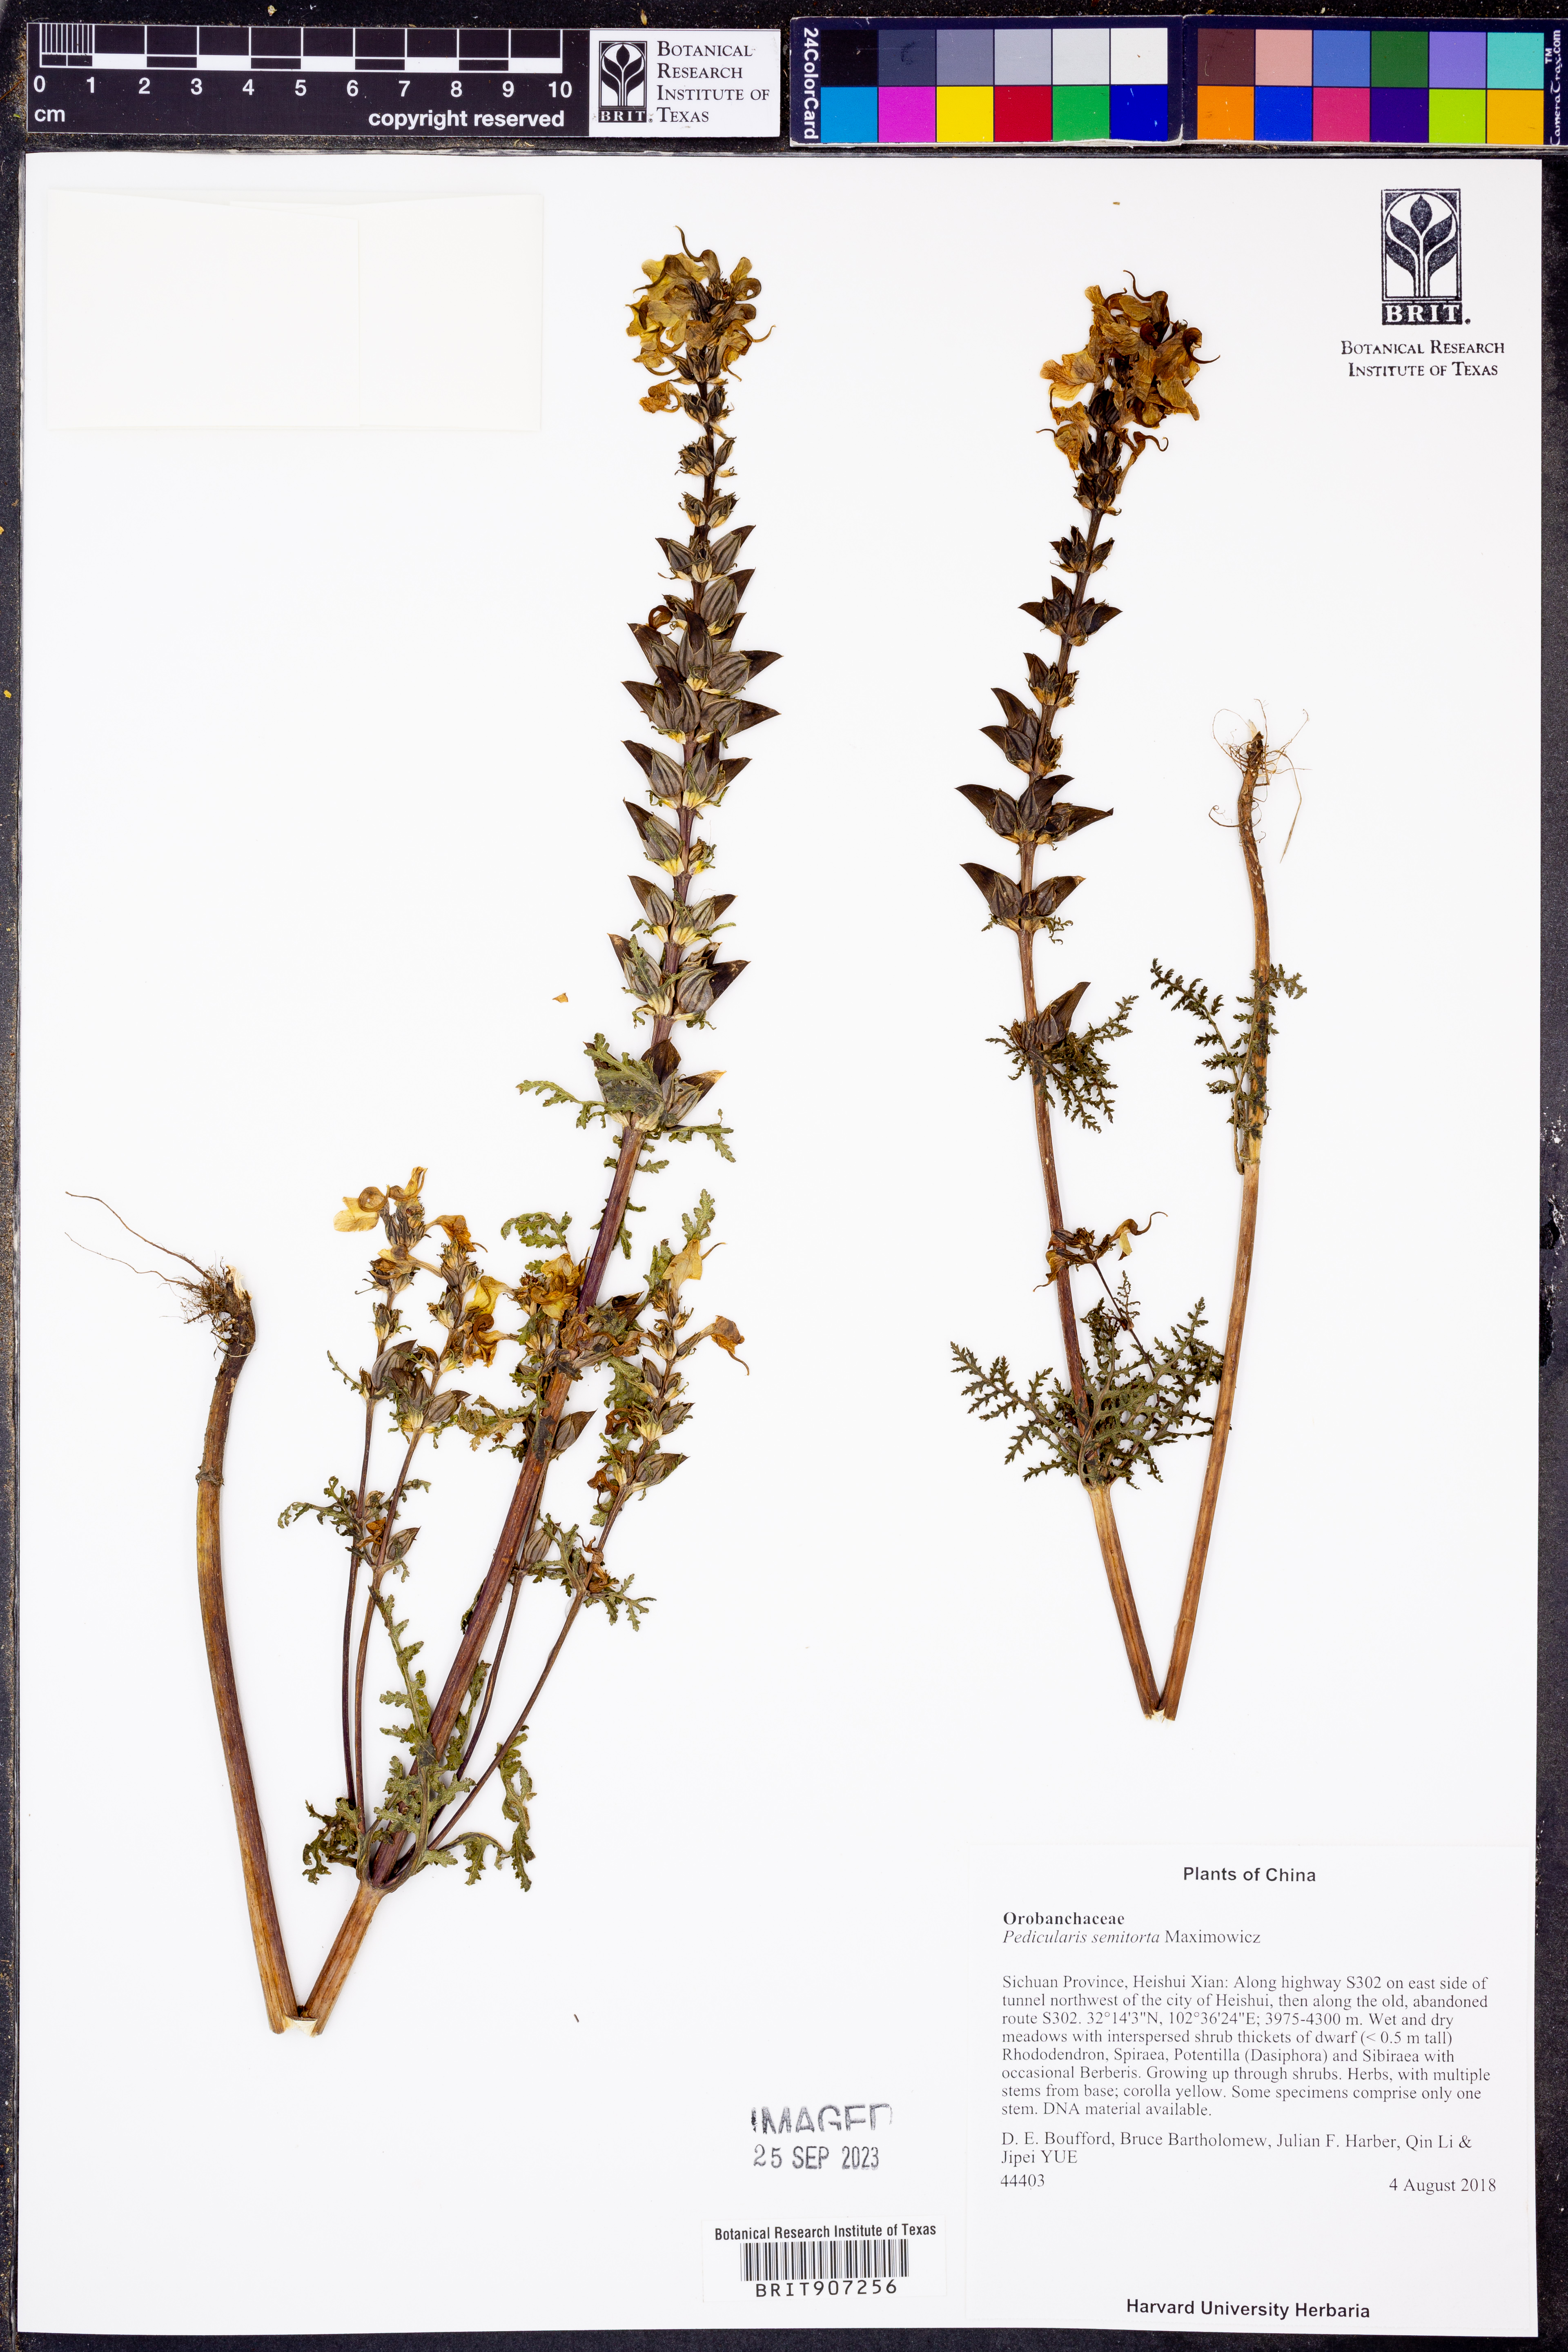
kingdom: Plantae
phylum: Tracheophyta
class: Magnoliopsida
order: Lamiales
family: Orobanchaceae
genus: Pedicularis
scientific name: Pedicularis semitorta
